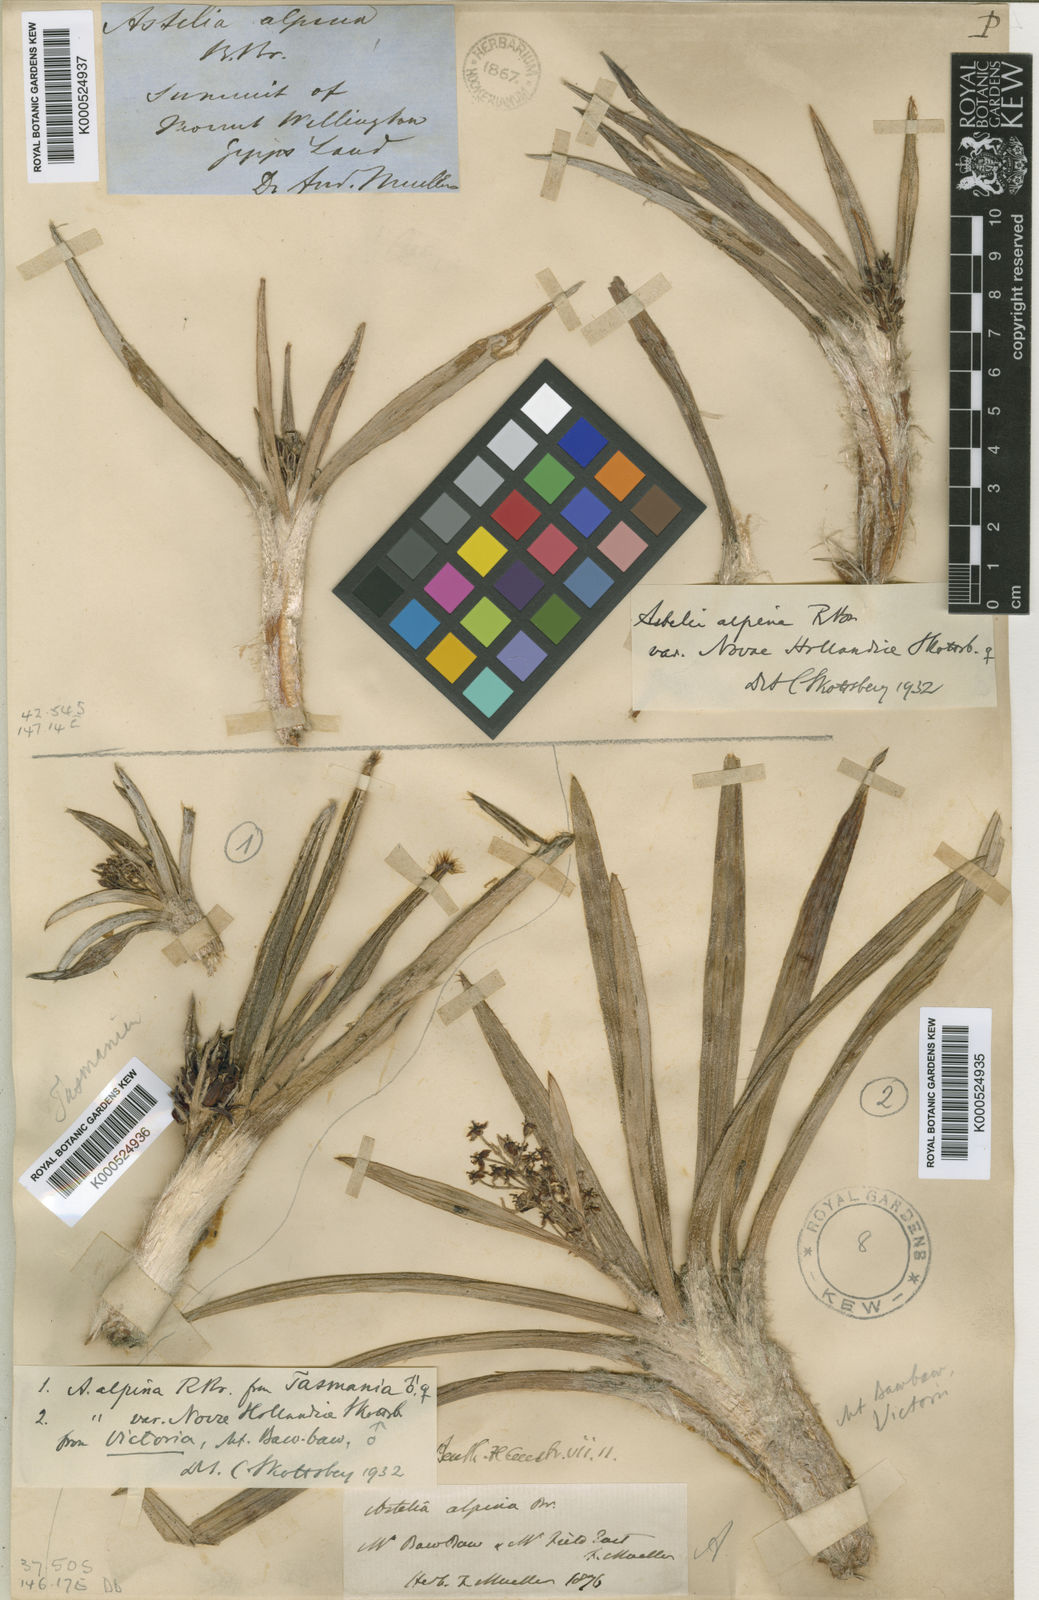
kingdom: Plantae
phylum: Tracheophyta
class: Liliopsida
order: Asparagales
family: Asteliaceae
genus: Astelia
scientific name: Astelia alpina
